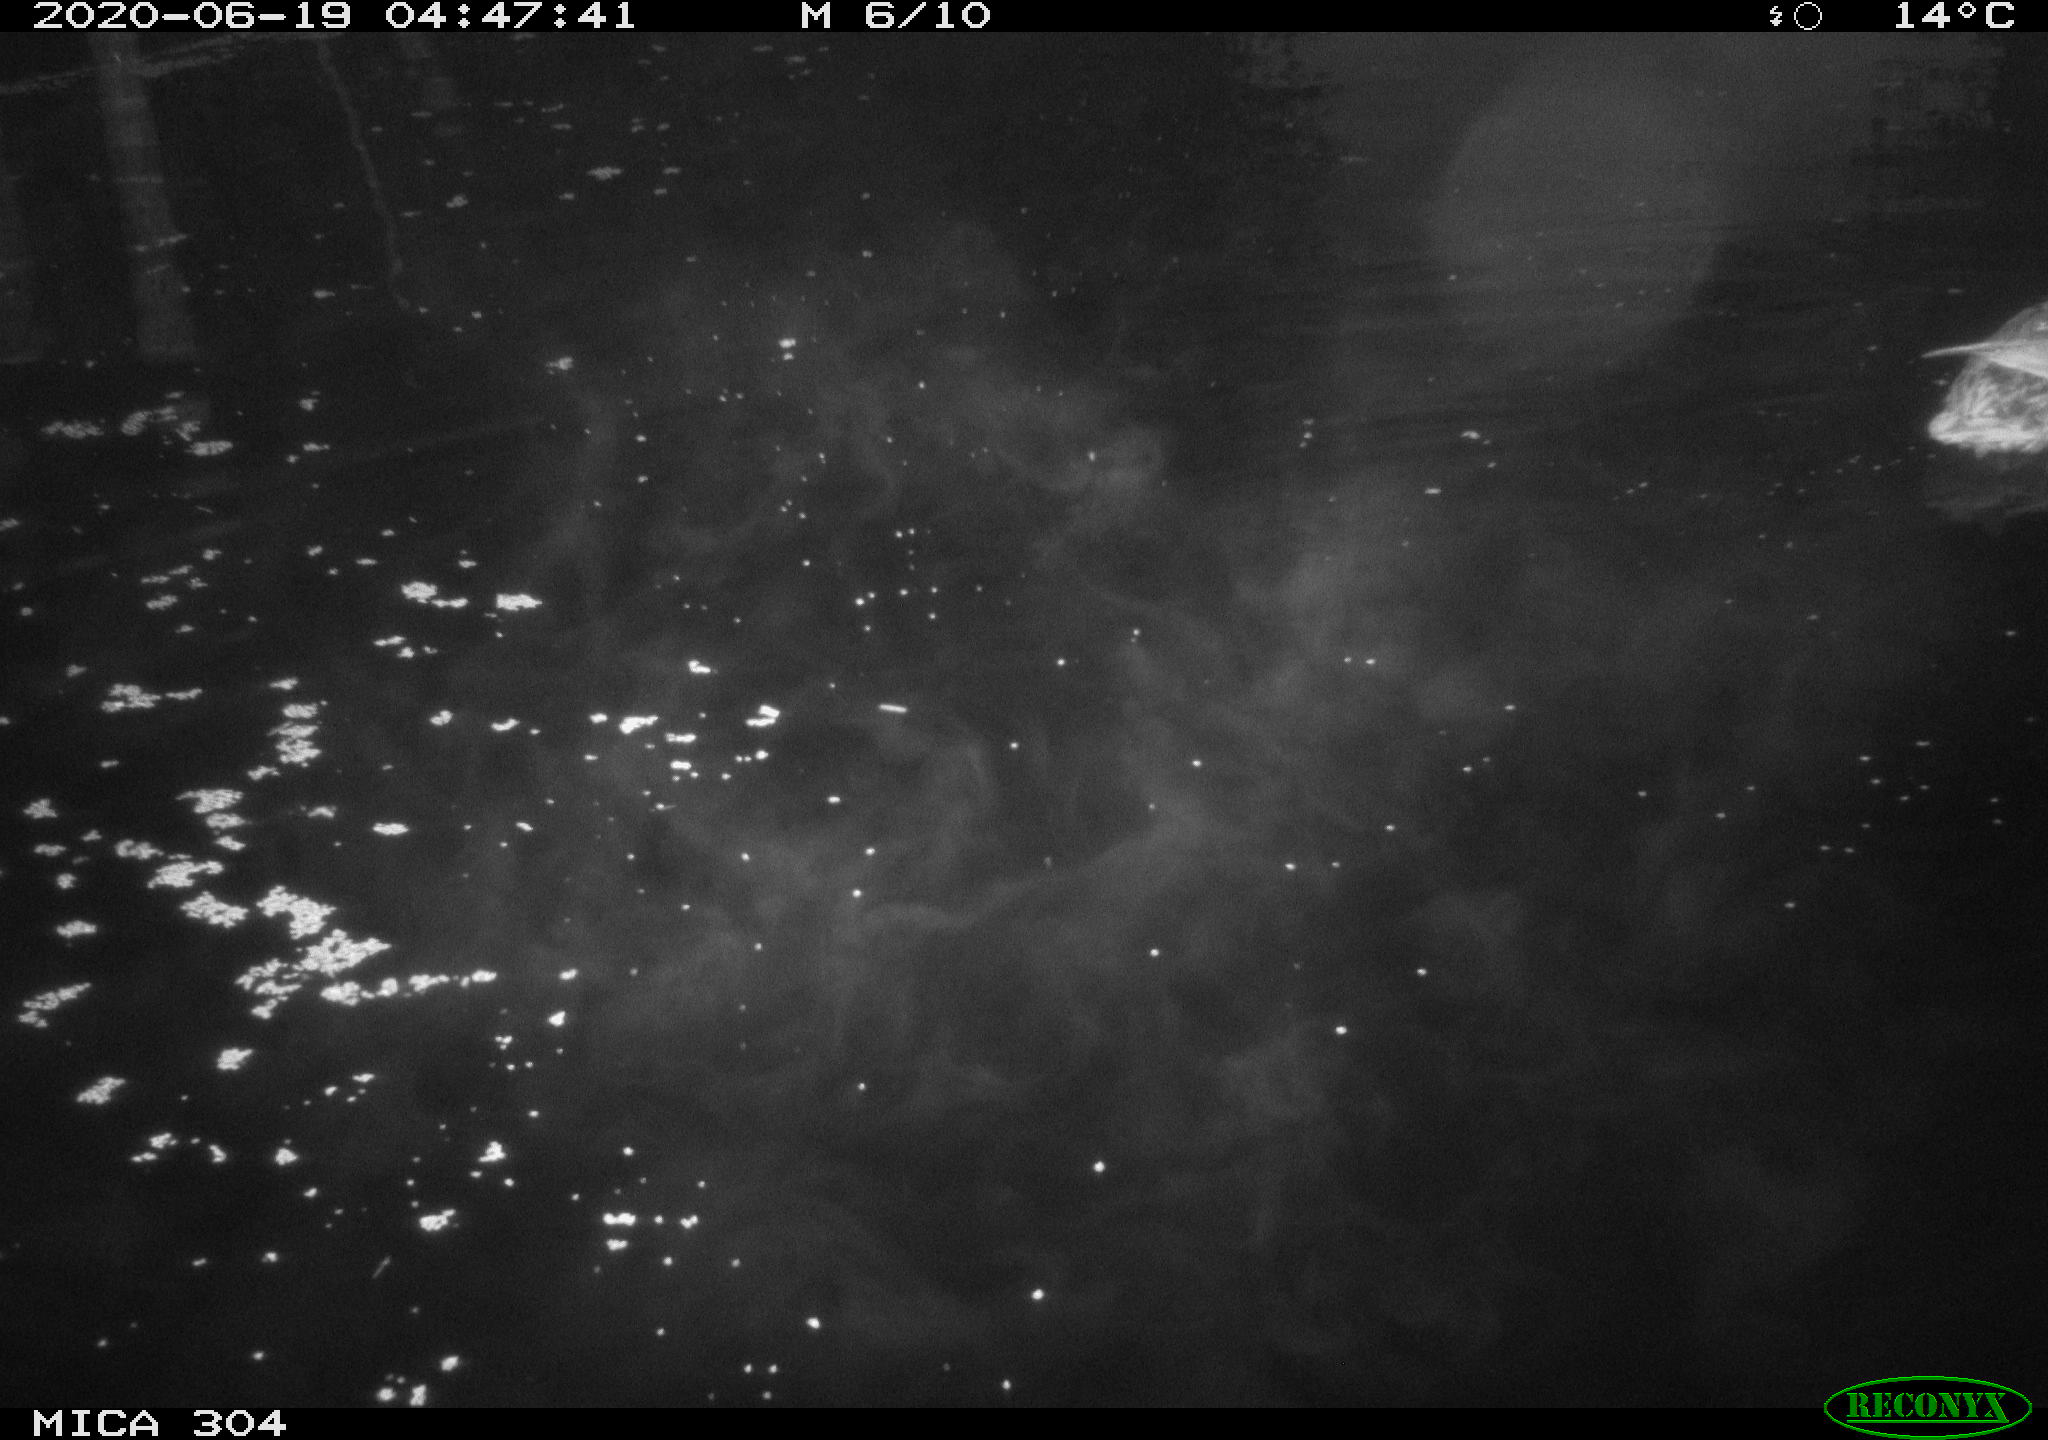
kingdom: Animalia
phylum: Chordata
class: Aves
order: Anseriformes
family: Anatidae
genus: Anas
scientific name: Anas platyrhynchos
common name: Mallard
